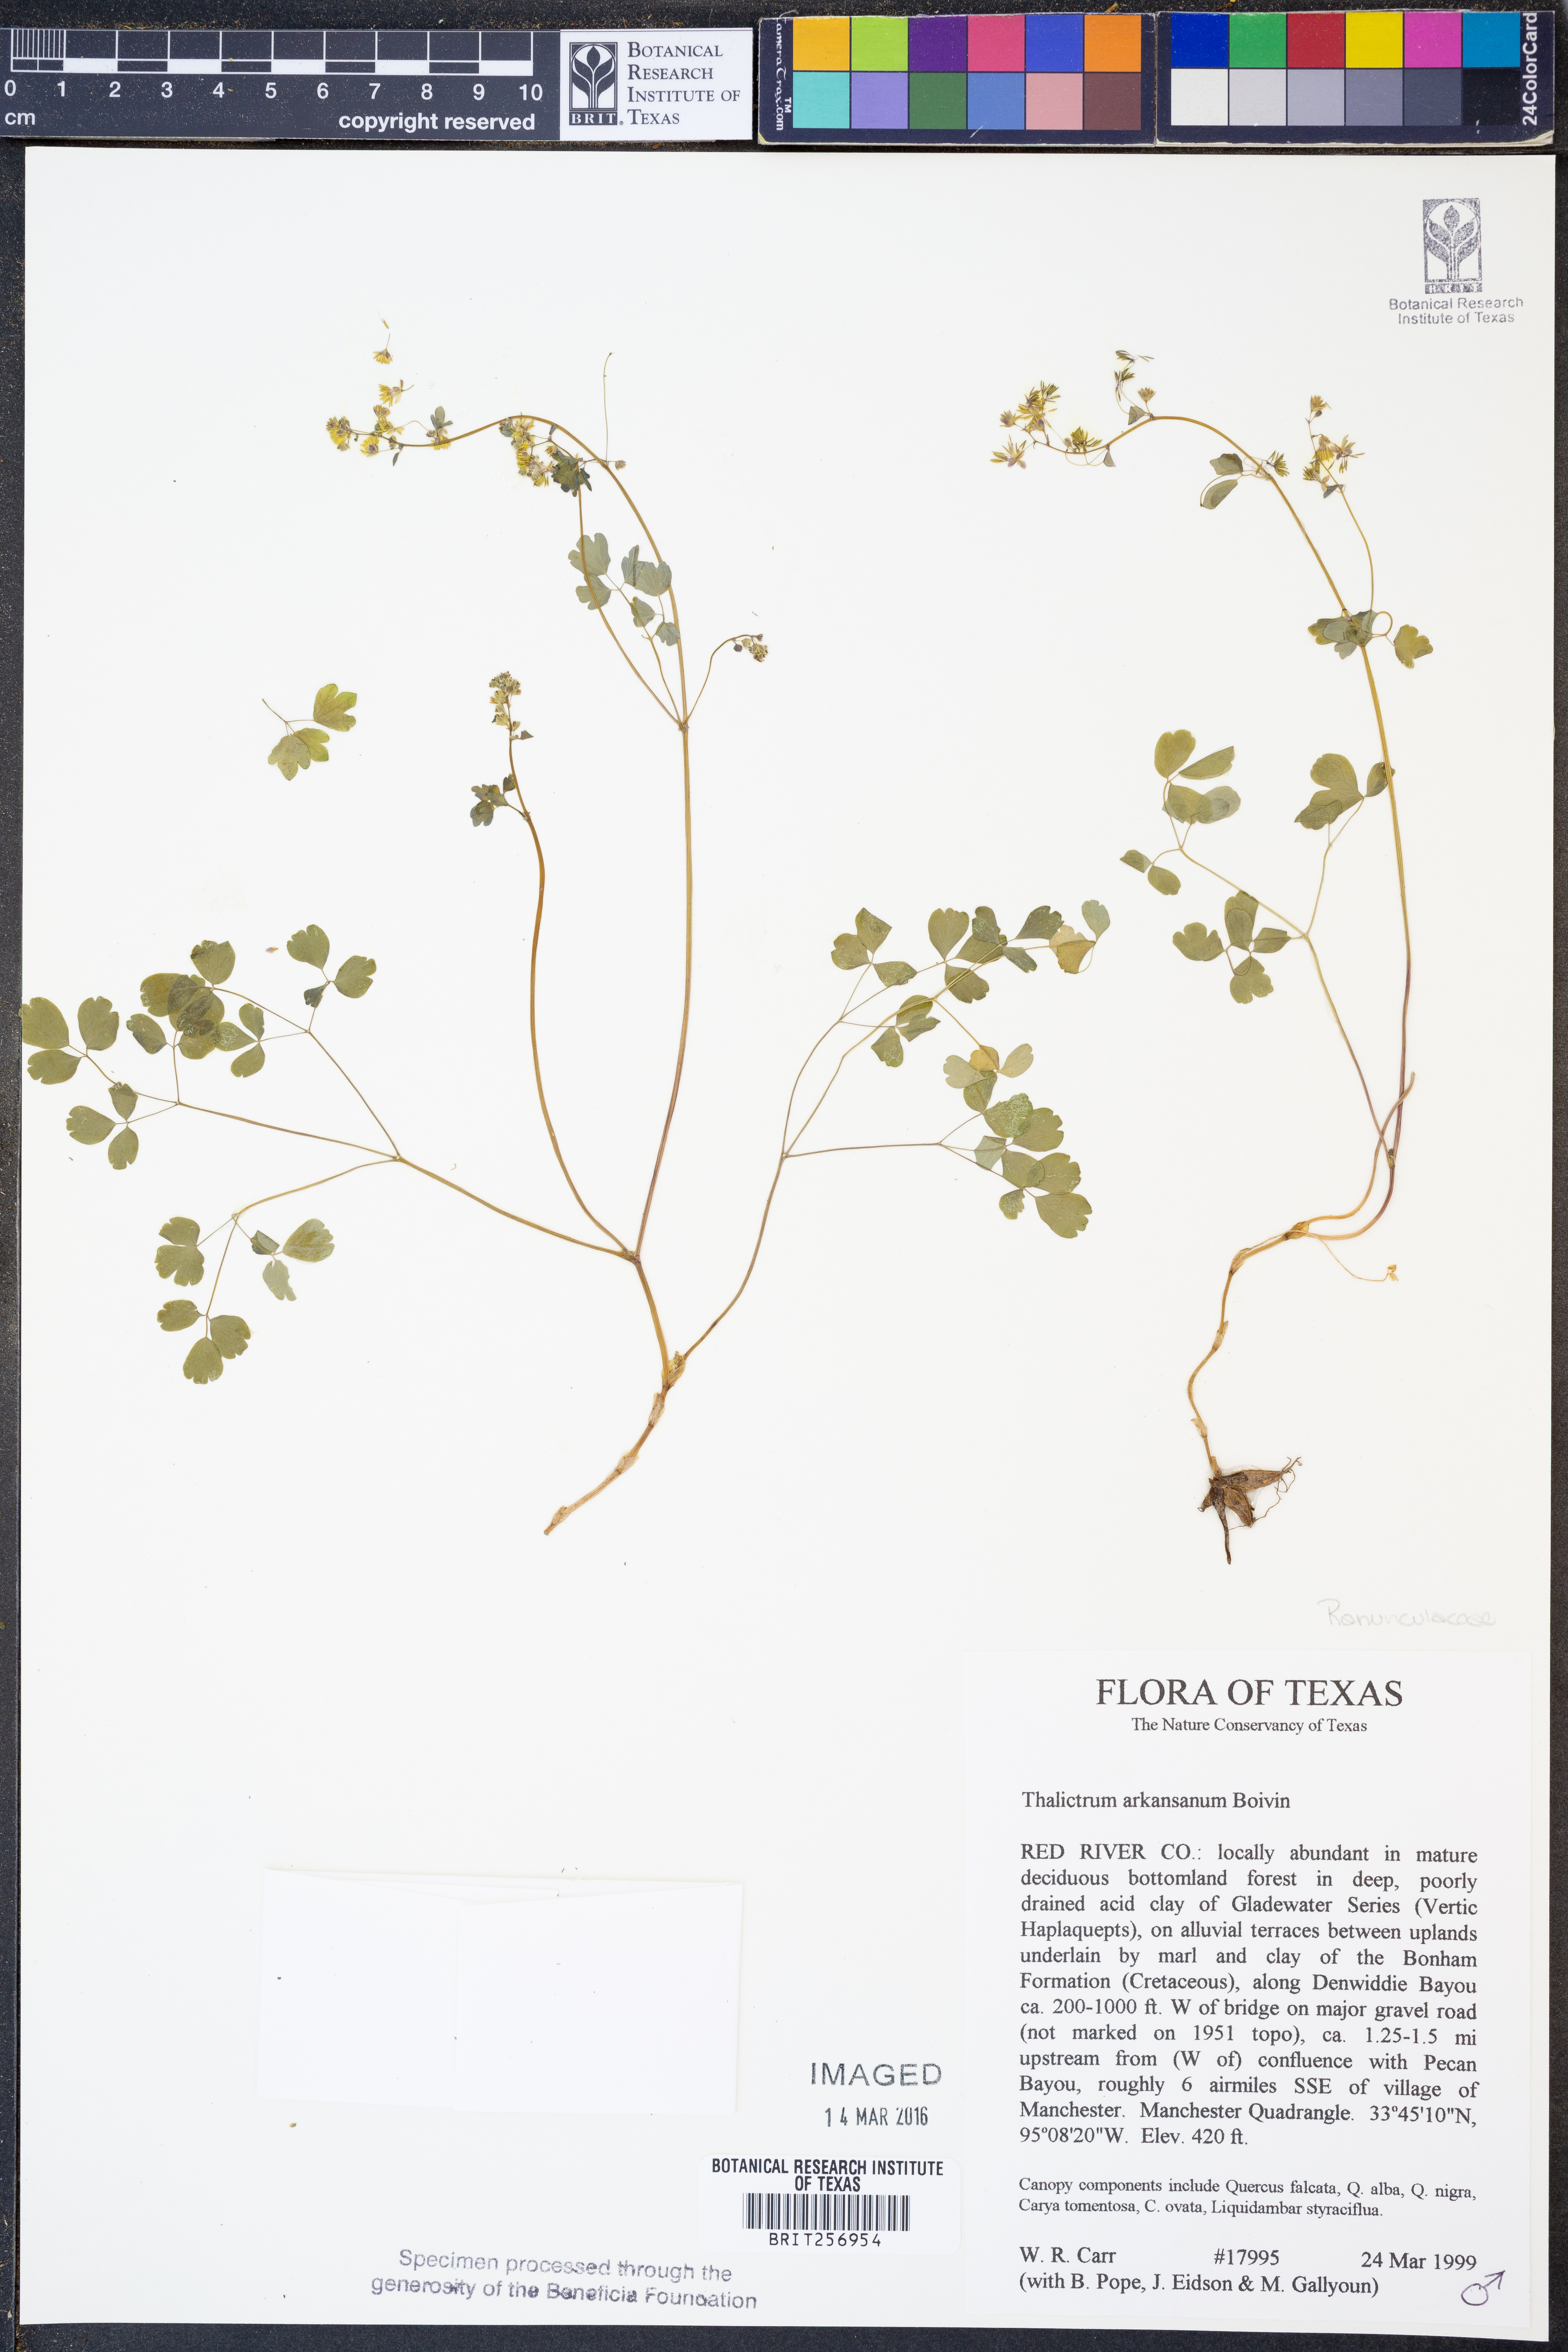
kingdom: Plantae
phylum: Tracheophyta
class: Magnoliopsida
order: Ranunculales
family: Ranunculaceae
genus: Thalictrum
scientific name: Thalictrum arkansanum
